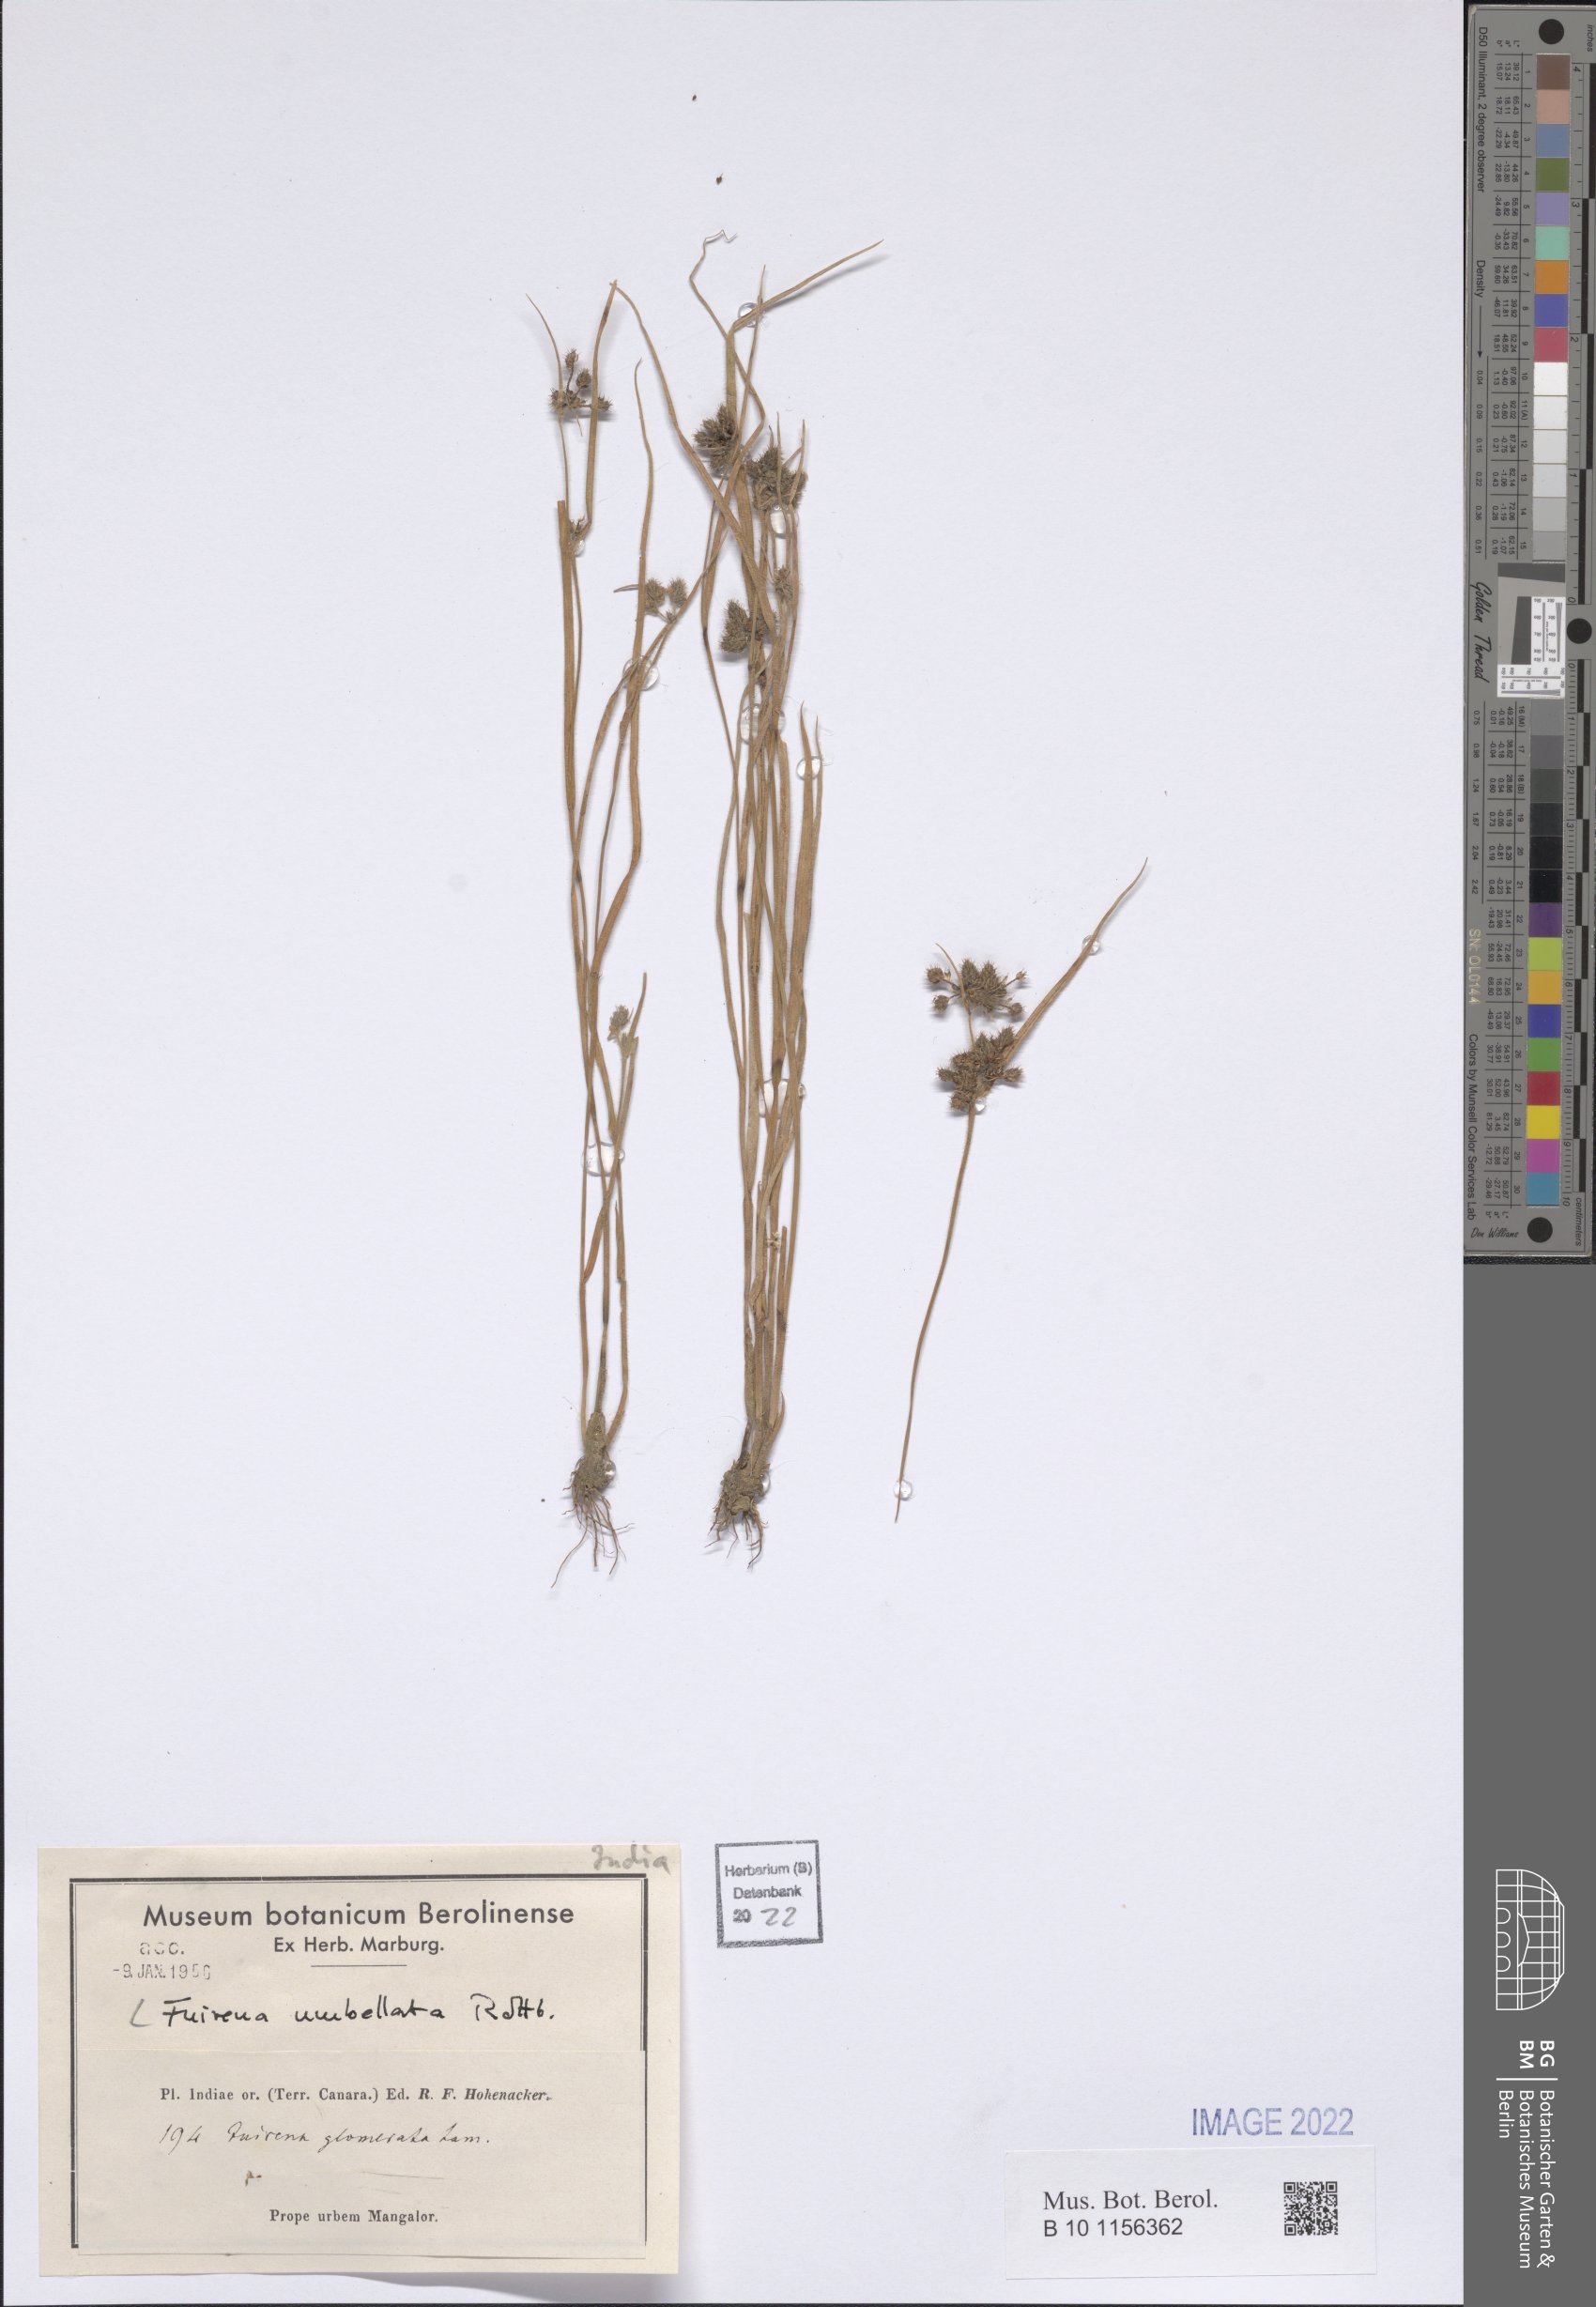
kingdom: Plantae
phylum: Tracheophyta
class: Liliopsida
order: Poales
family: Cyperaceae
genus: Fuirena
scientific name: Fuirena umbellata
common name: Yefen
